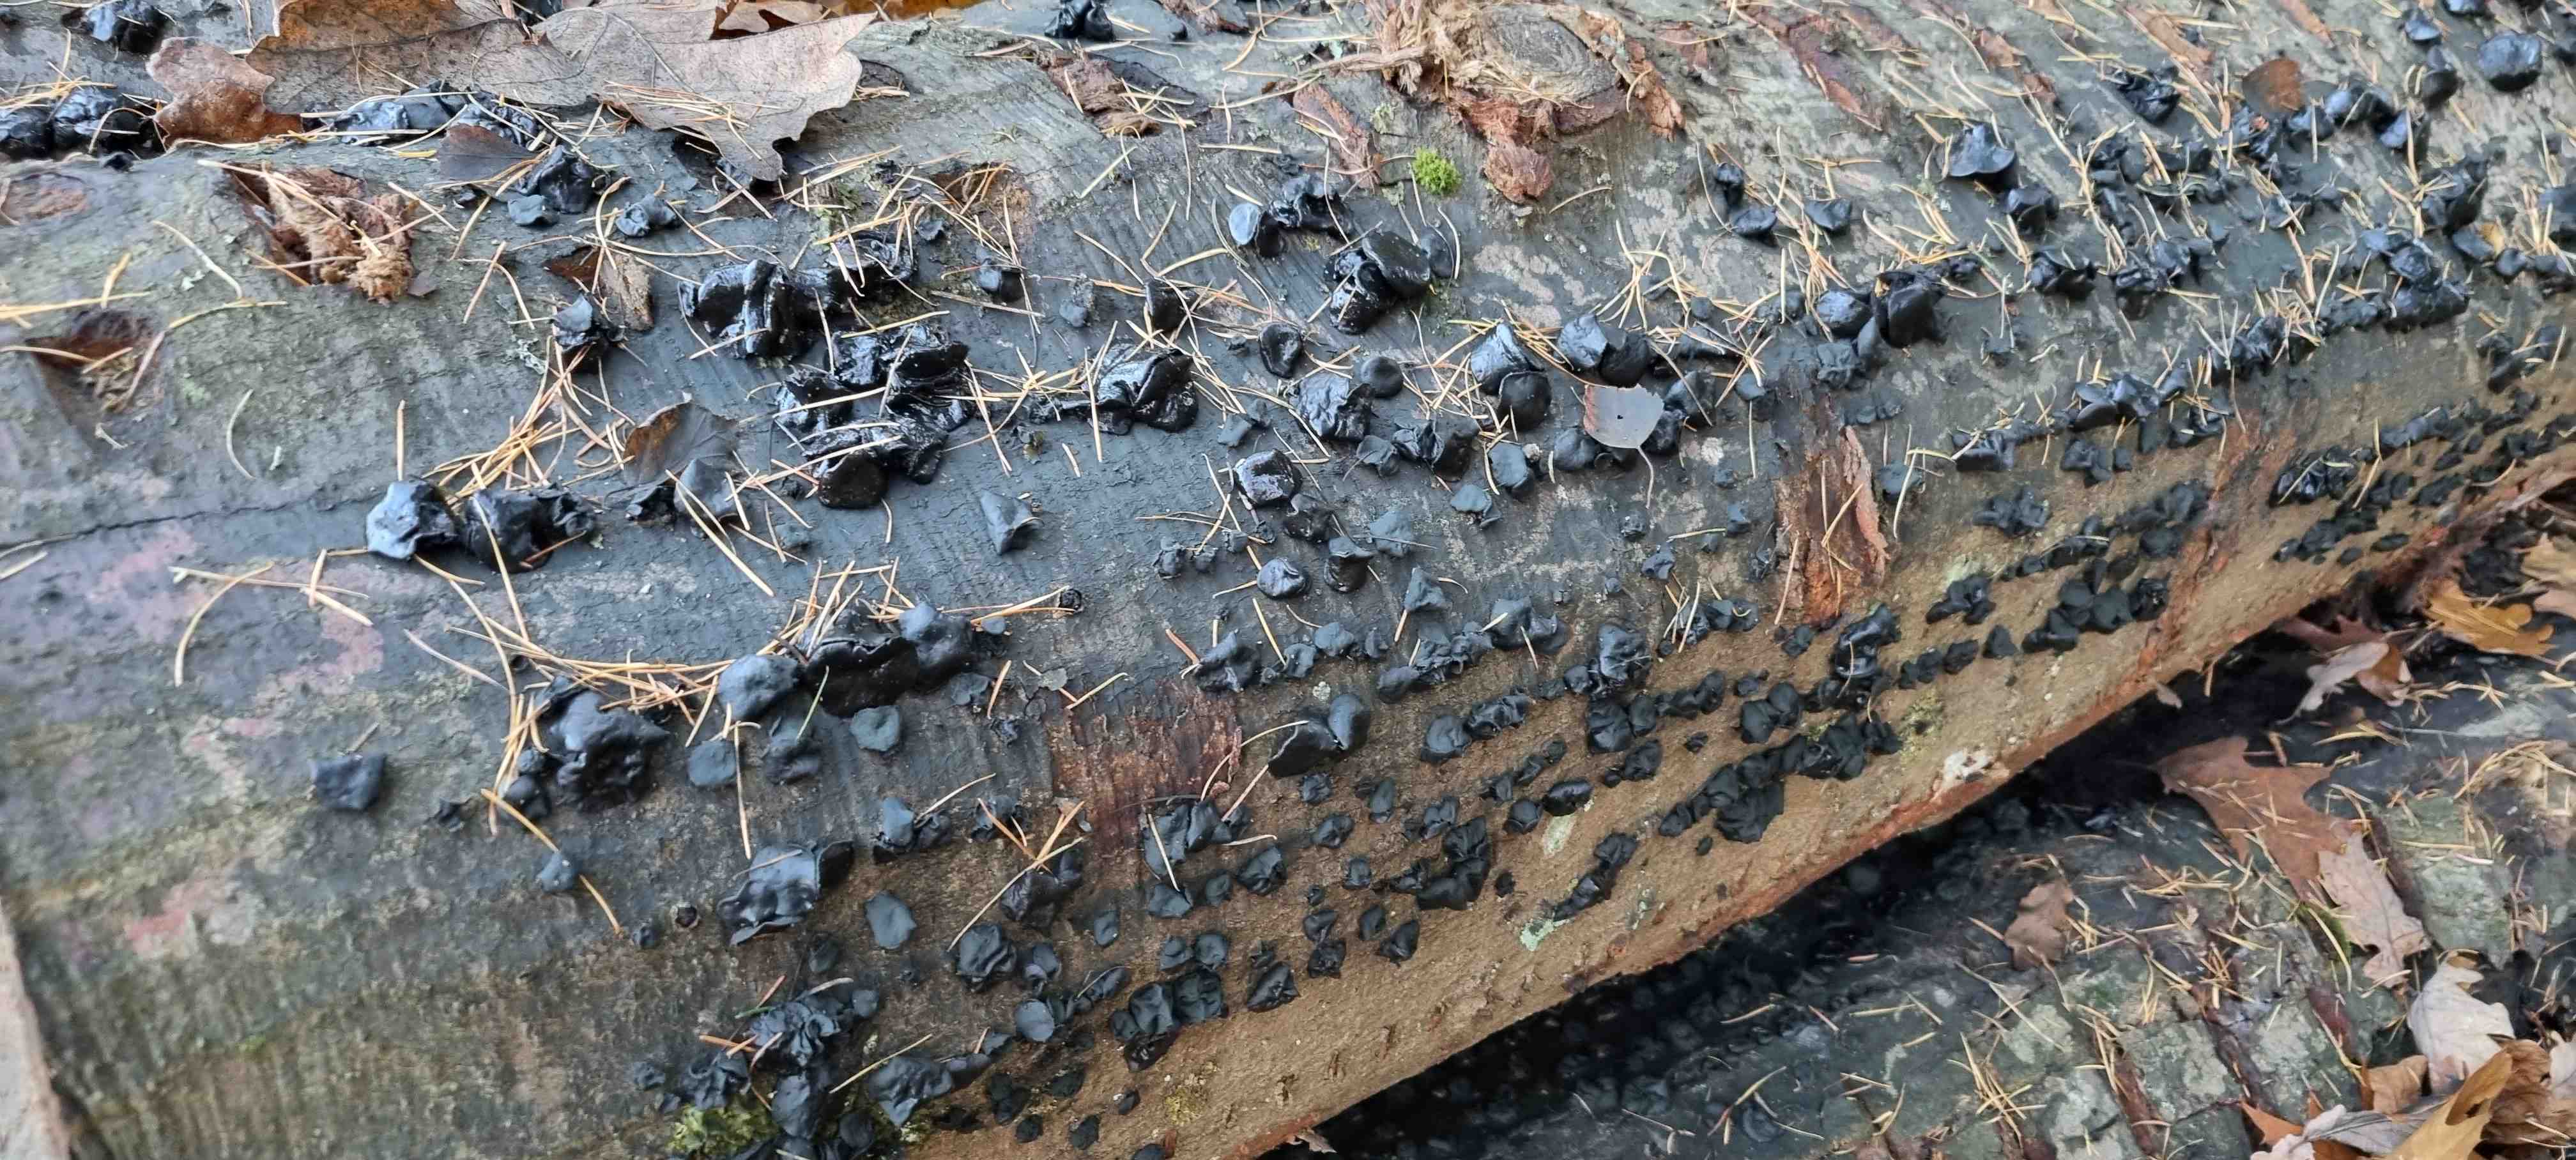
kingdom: Fungi
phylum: Ascomycota
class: Leotiomycetes
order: Phacidiales
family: Phacidiaceae
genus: Bulgaria
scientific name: Bulgaria inquinans
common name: afsmittende topsvamp
